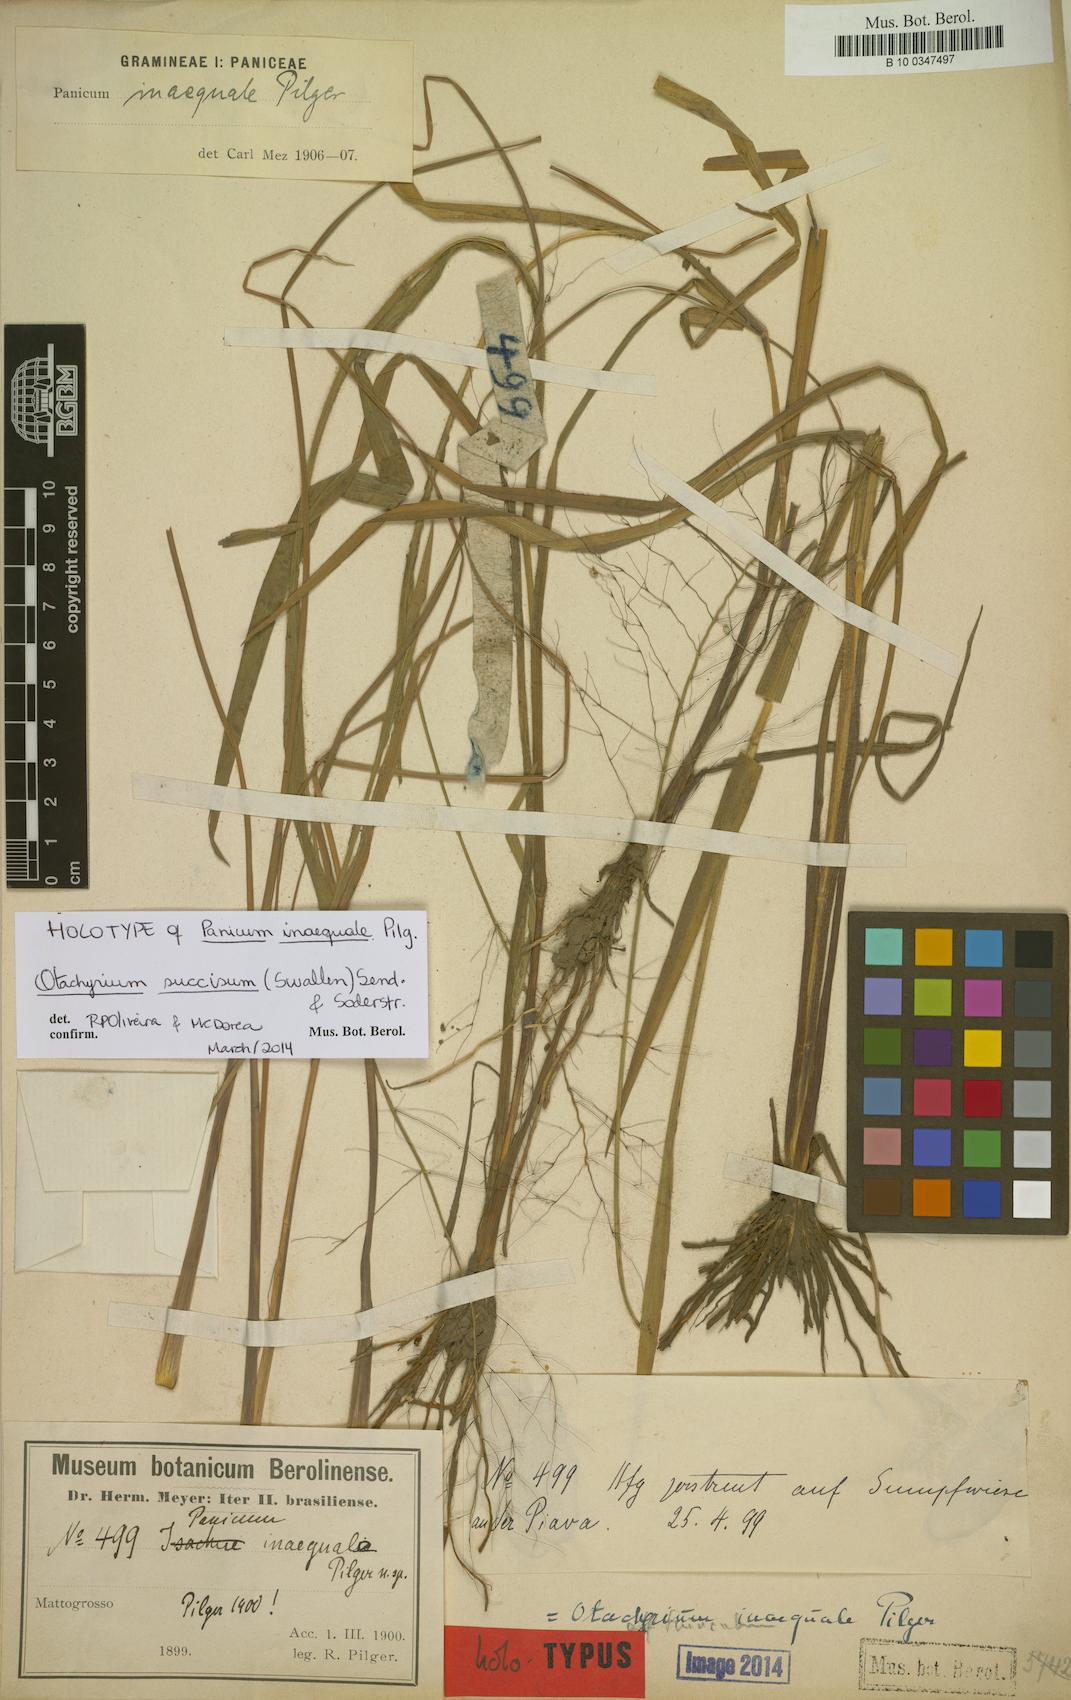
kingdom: Plantae
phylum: Tracheophyta
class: Liliopsida
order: Poales
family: Poaceae
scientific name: Poaceae
